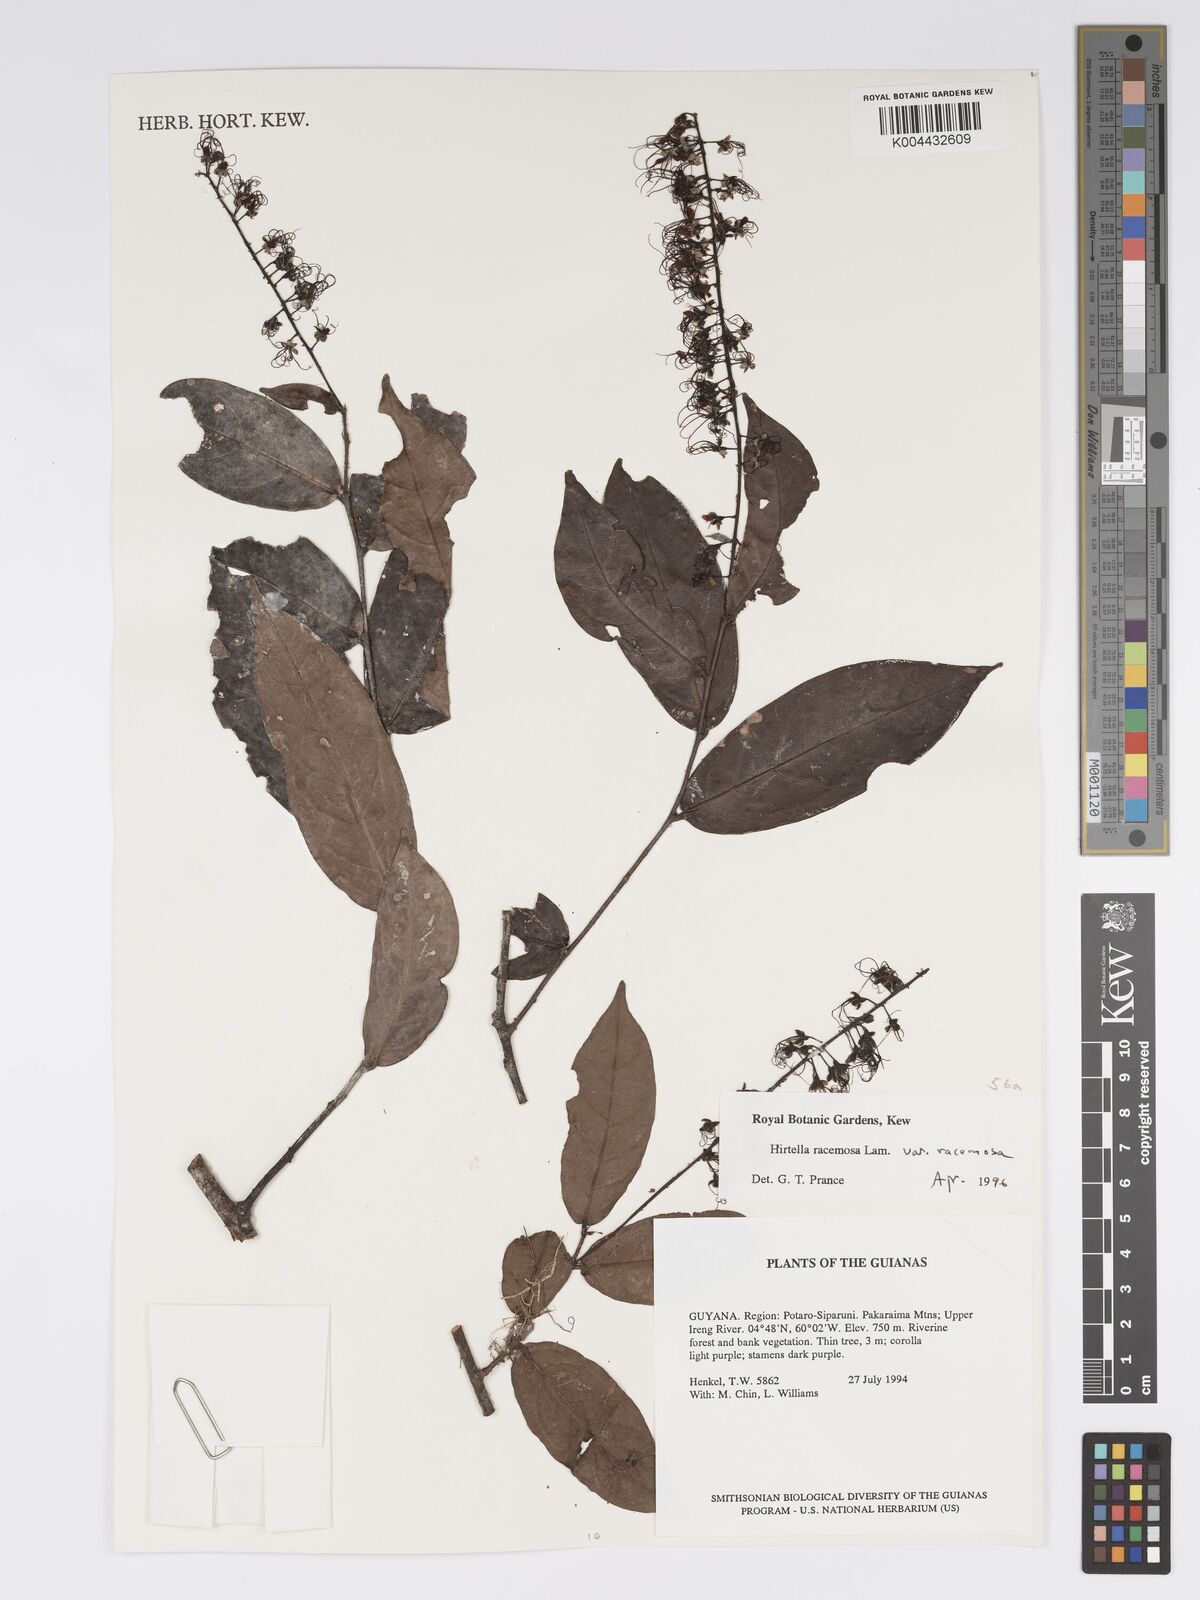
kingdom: Plantae
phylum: Tracheophyta
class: Magnoliopsida
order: Malpighiales
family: Chrysobalanaceae
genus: Hirtella
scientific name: Hirtella racemosa
